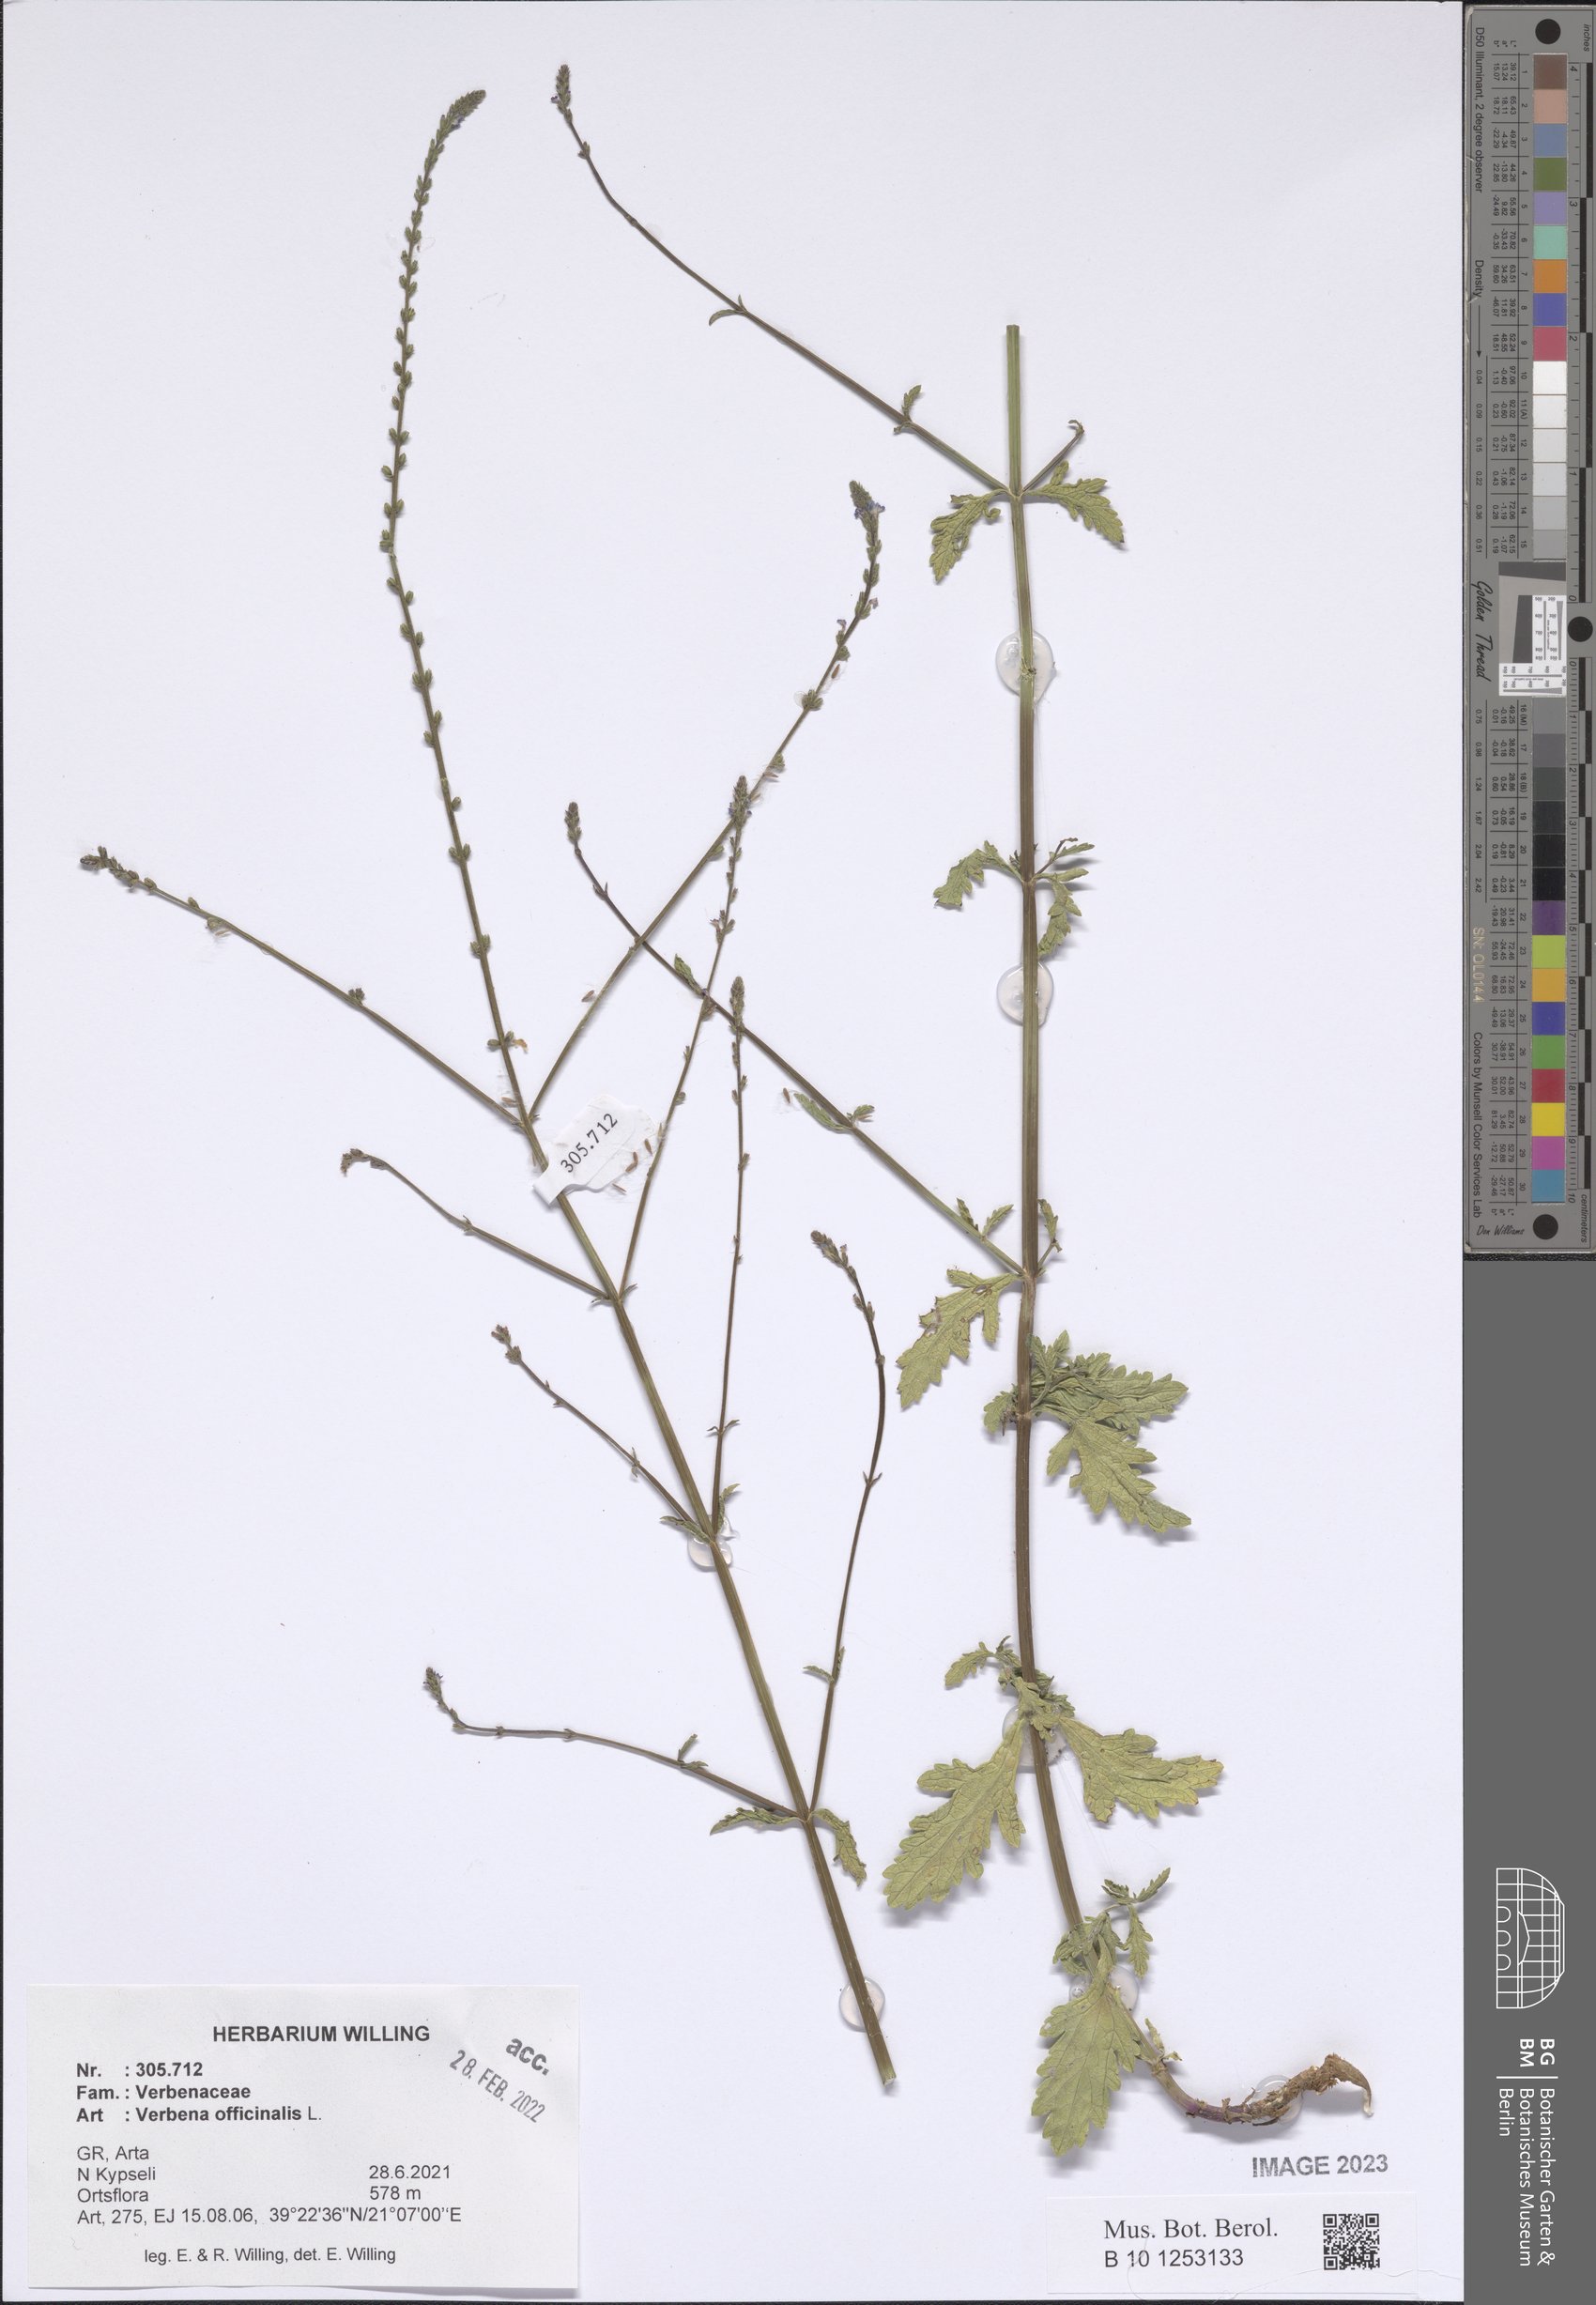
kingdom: Plantae
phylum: Tracheophyta
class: Magnoliopsida
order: Lamiales
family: Verbenaceae
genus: Verbena
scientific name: Verbena officinalis
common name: Vervain
